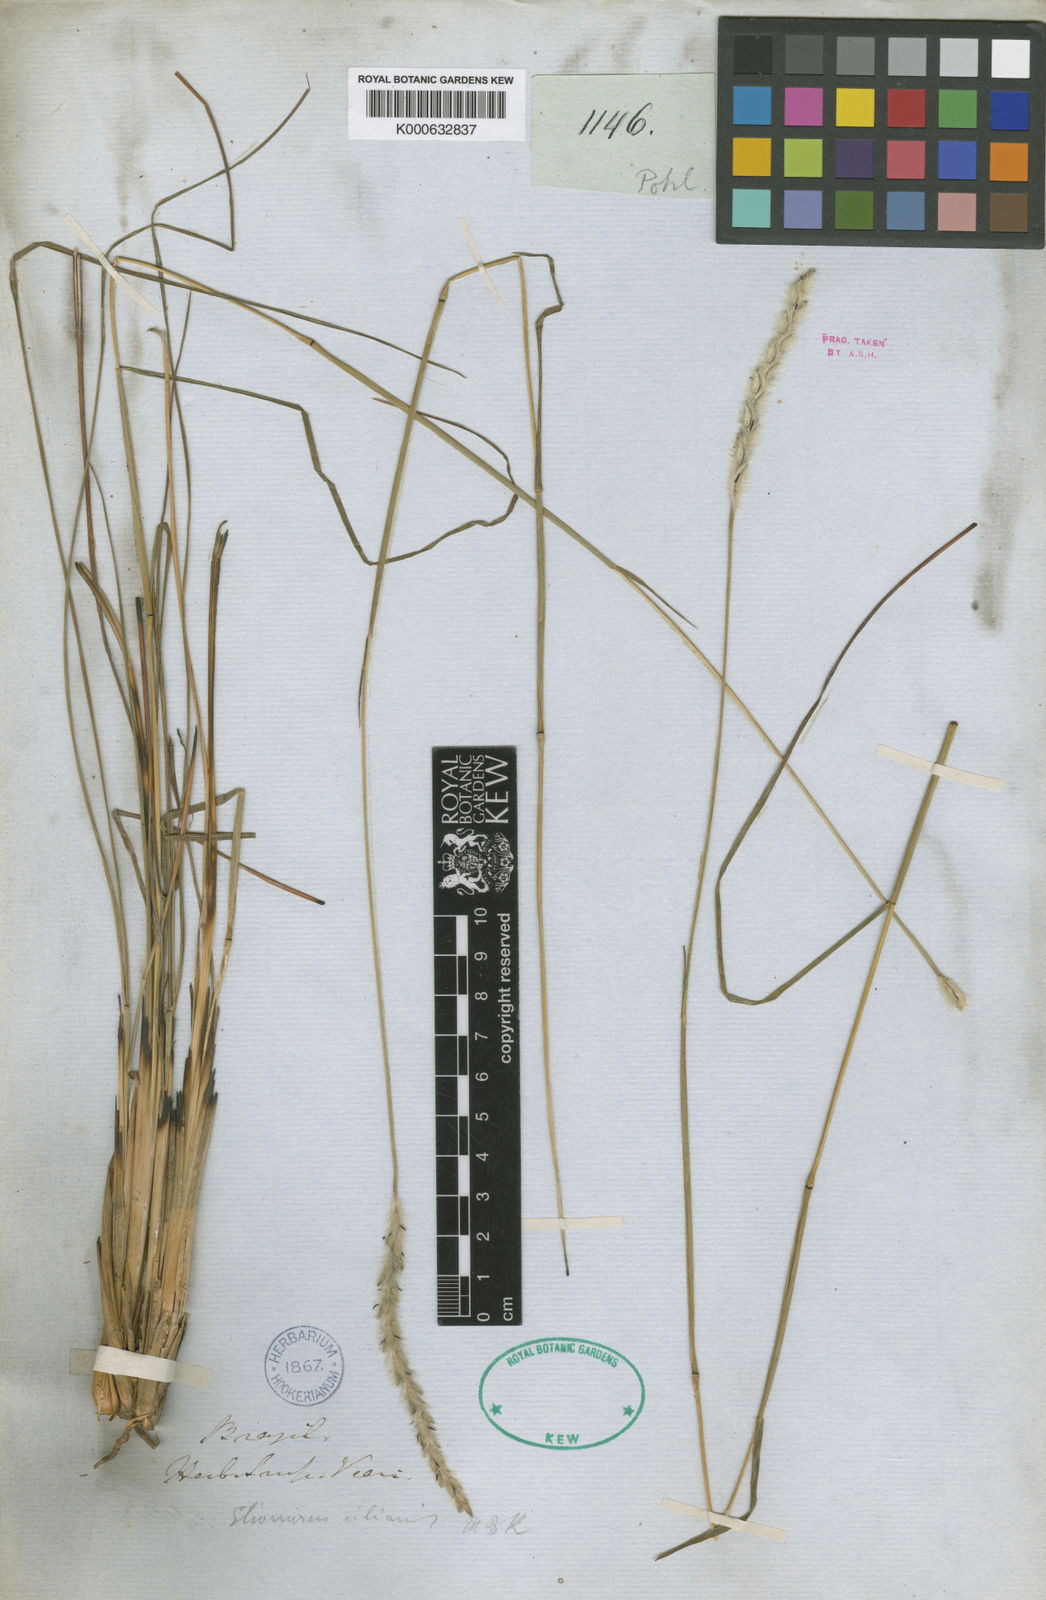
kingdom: Plantae
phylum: Tracheophyta
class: Liliopsida
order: Poales
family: Poaceae
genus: Elionurus
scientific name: Elionurus muticus
